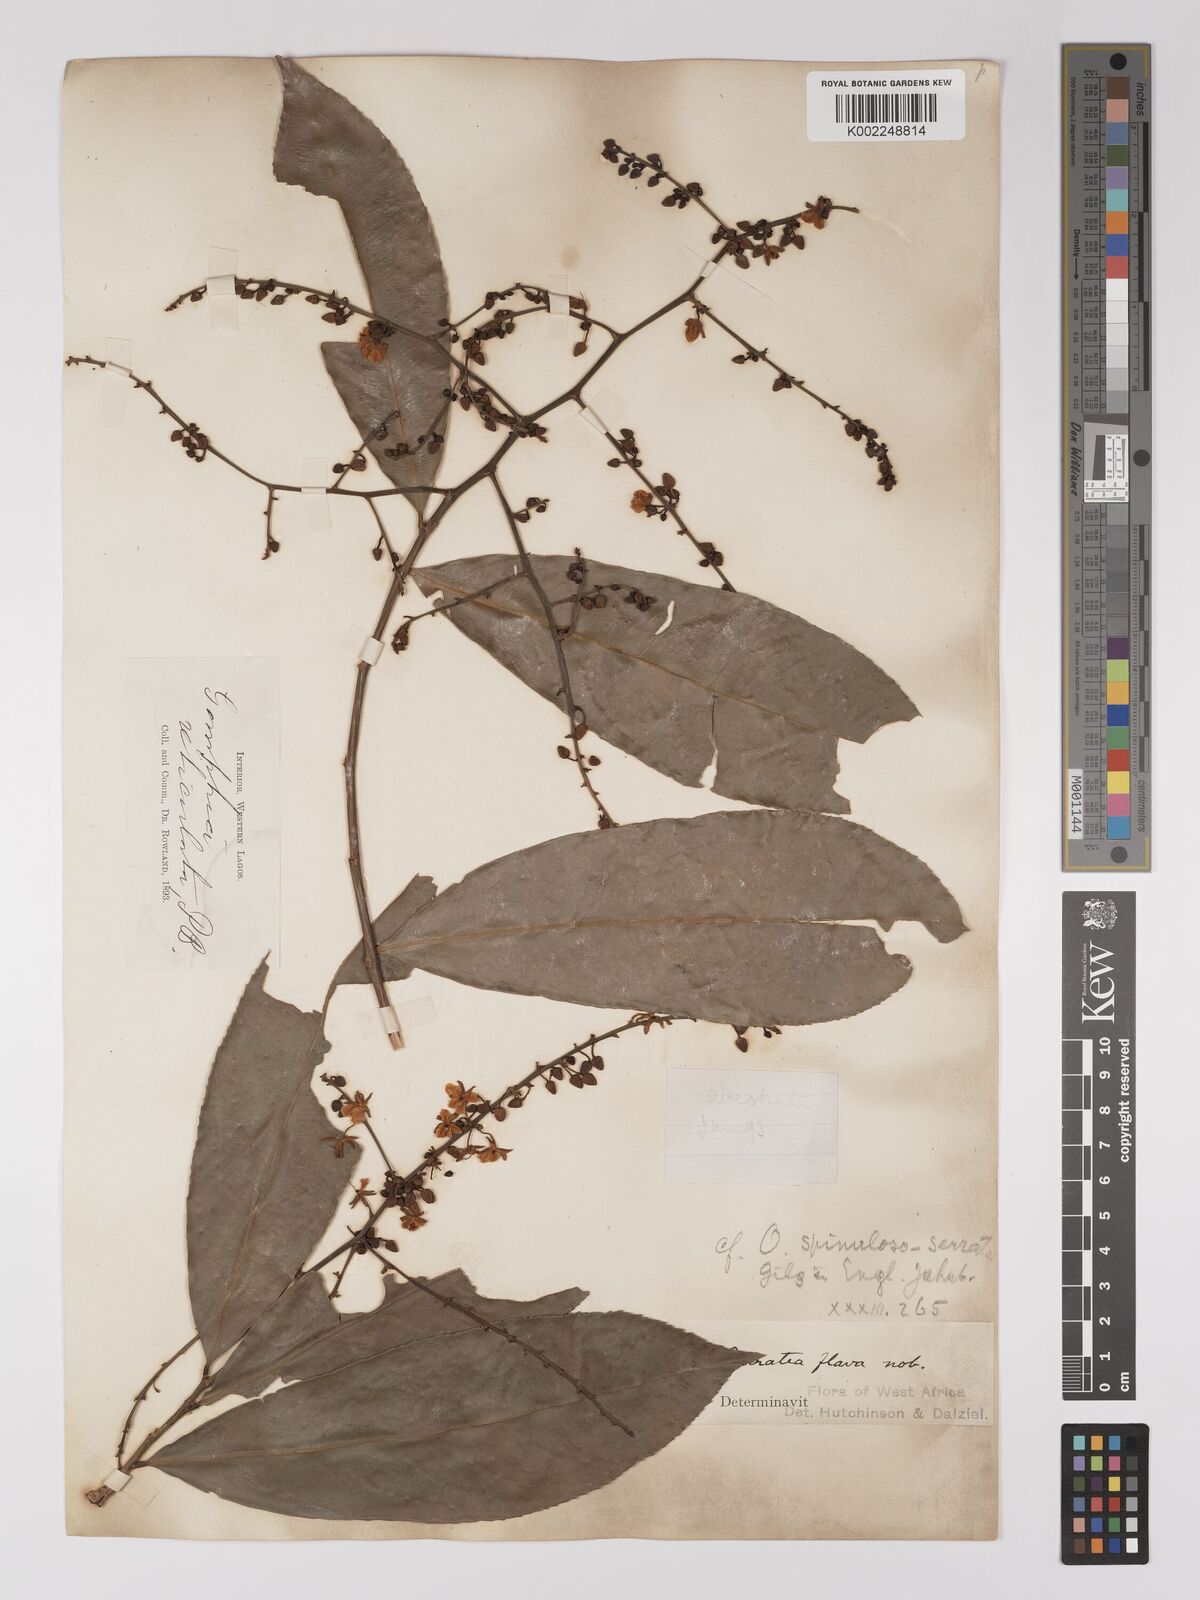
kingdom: Plantae
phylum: Tracheophyta
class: Magnoliopsida
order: Malpighiales
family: Ochnaceae
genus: Campylospermum
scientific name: Campylospermum flavum
